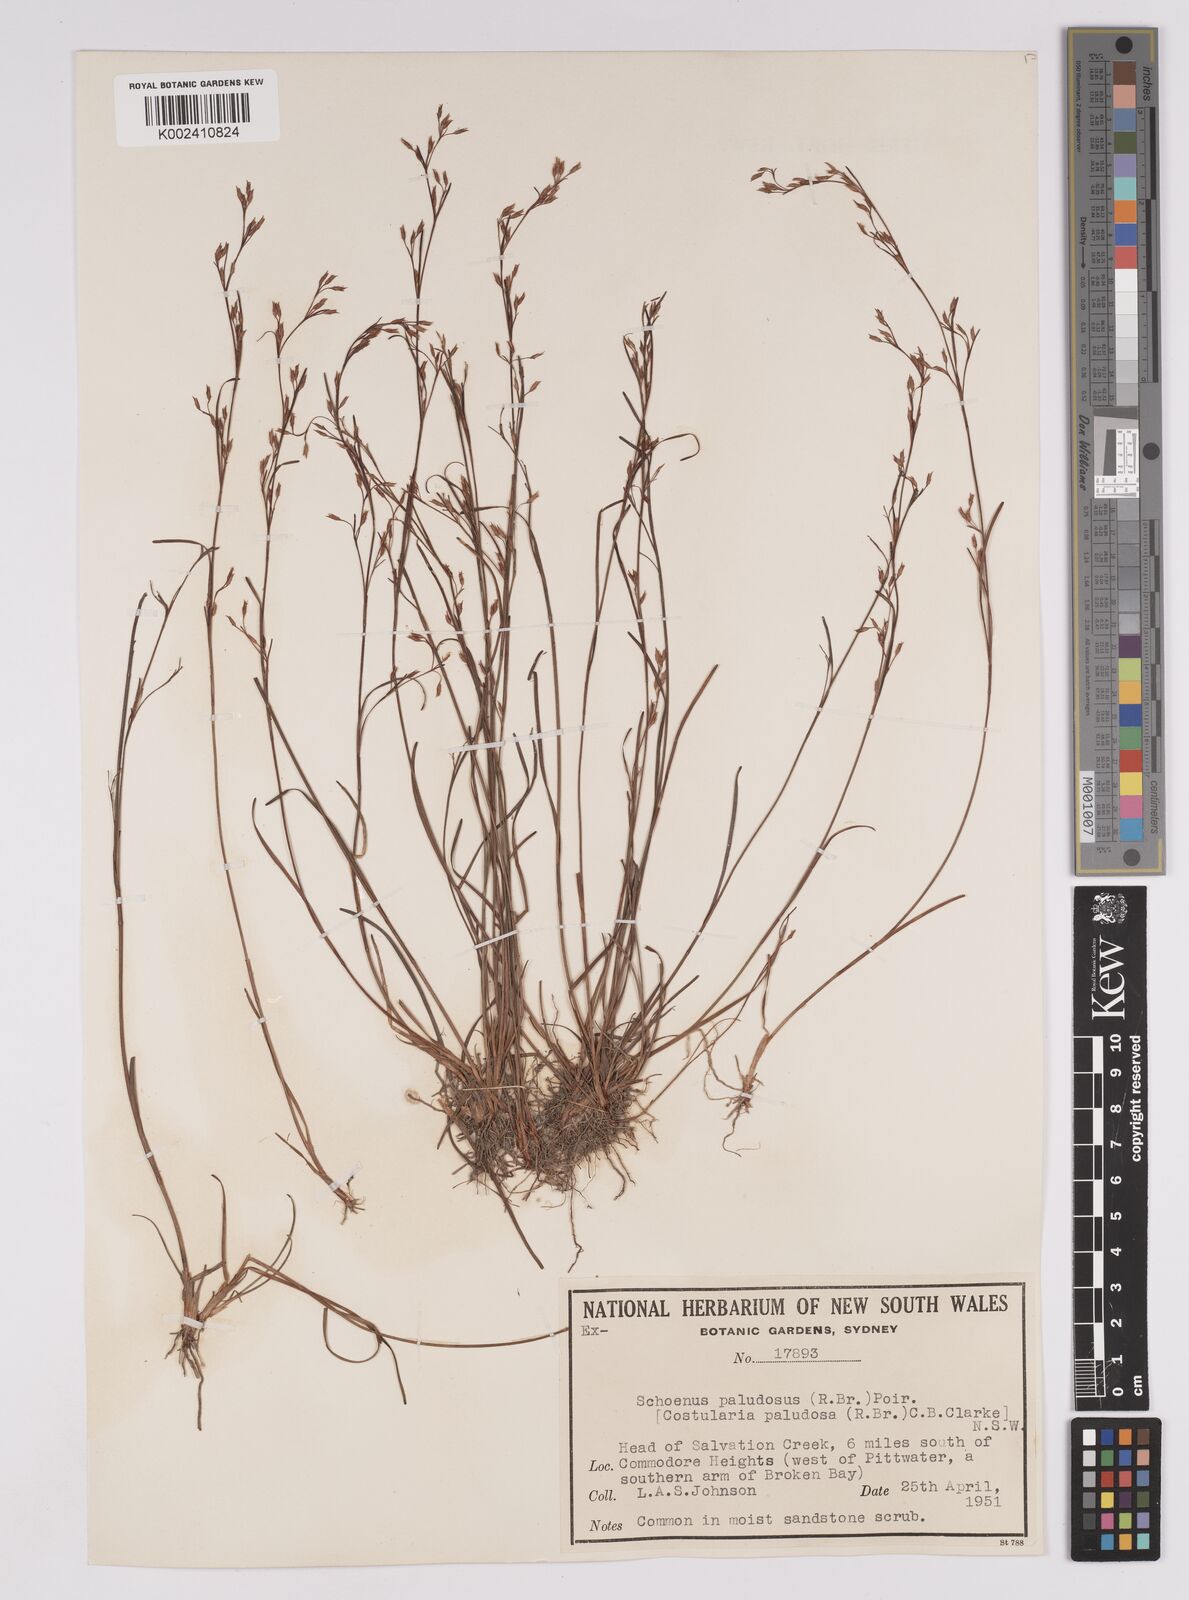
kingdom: Plantae
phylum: Tracheophyta
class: Liliopsida
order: Poales
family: Cyperaceae
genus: Anthelepis
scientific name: Anthelepis paludosa
